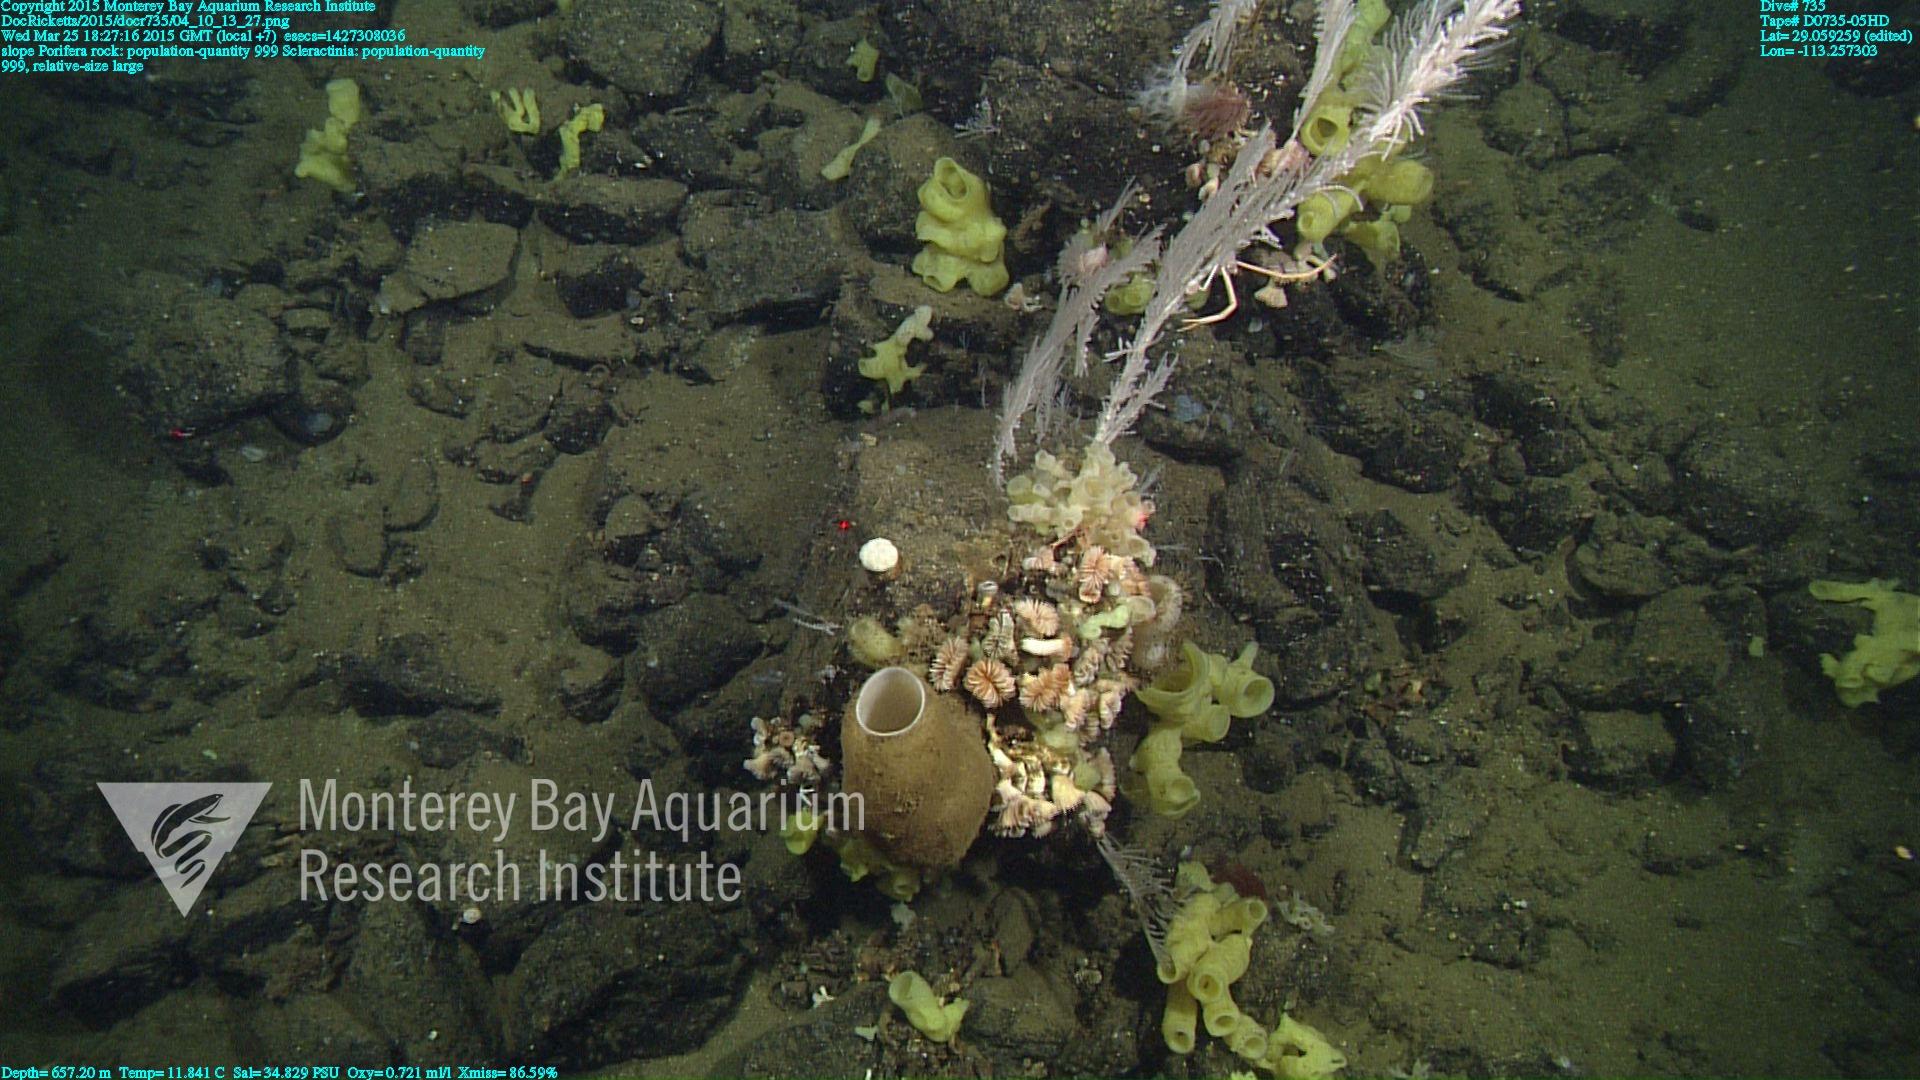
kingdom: Animalia
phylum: Cnidaria
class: Anthozoa
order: Scleractinia
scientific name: Scleractinia
